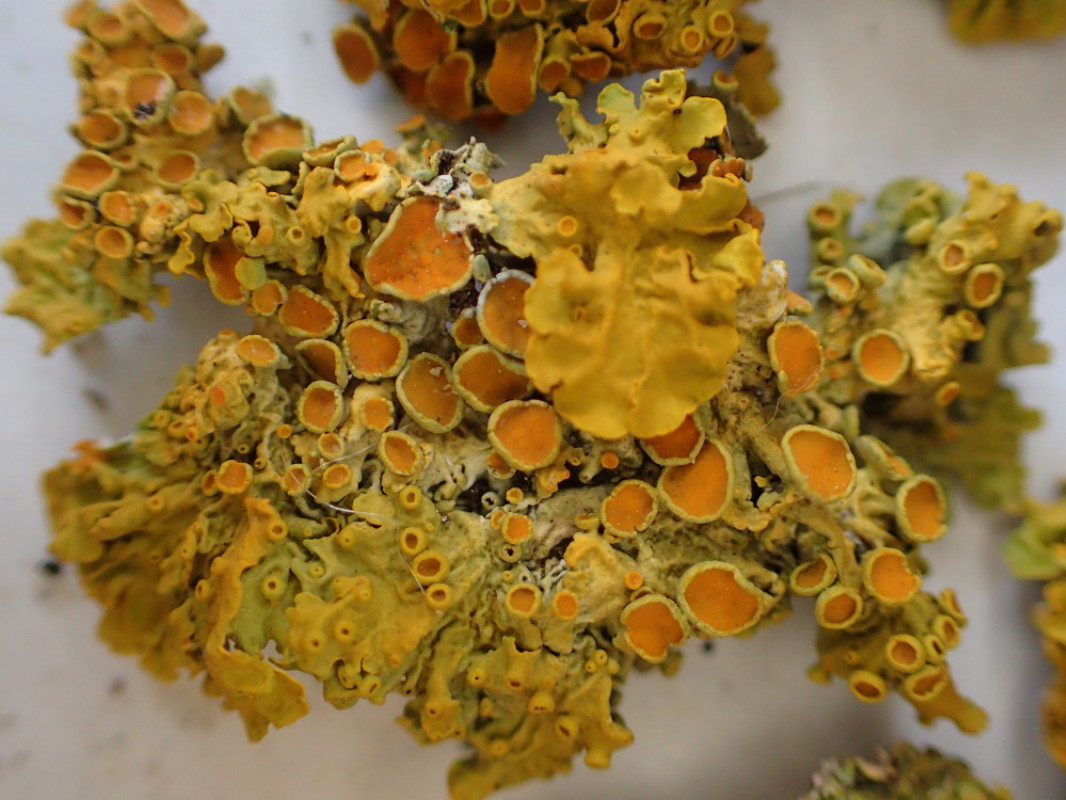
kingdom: Fungi
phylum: Ascomycota
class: Lecanoromycetes
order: Teloschistales
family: Teloschistaceae
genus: Xanthoria
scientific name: Xanthoria parietina
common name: almindelig væggelav
